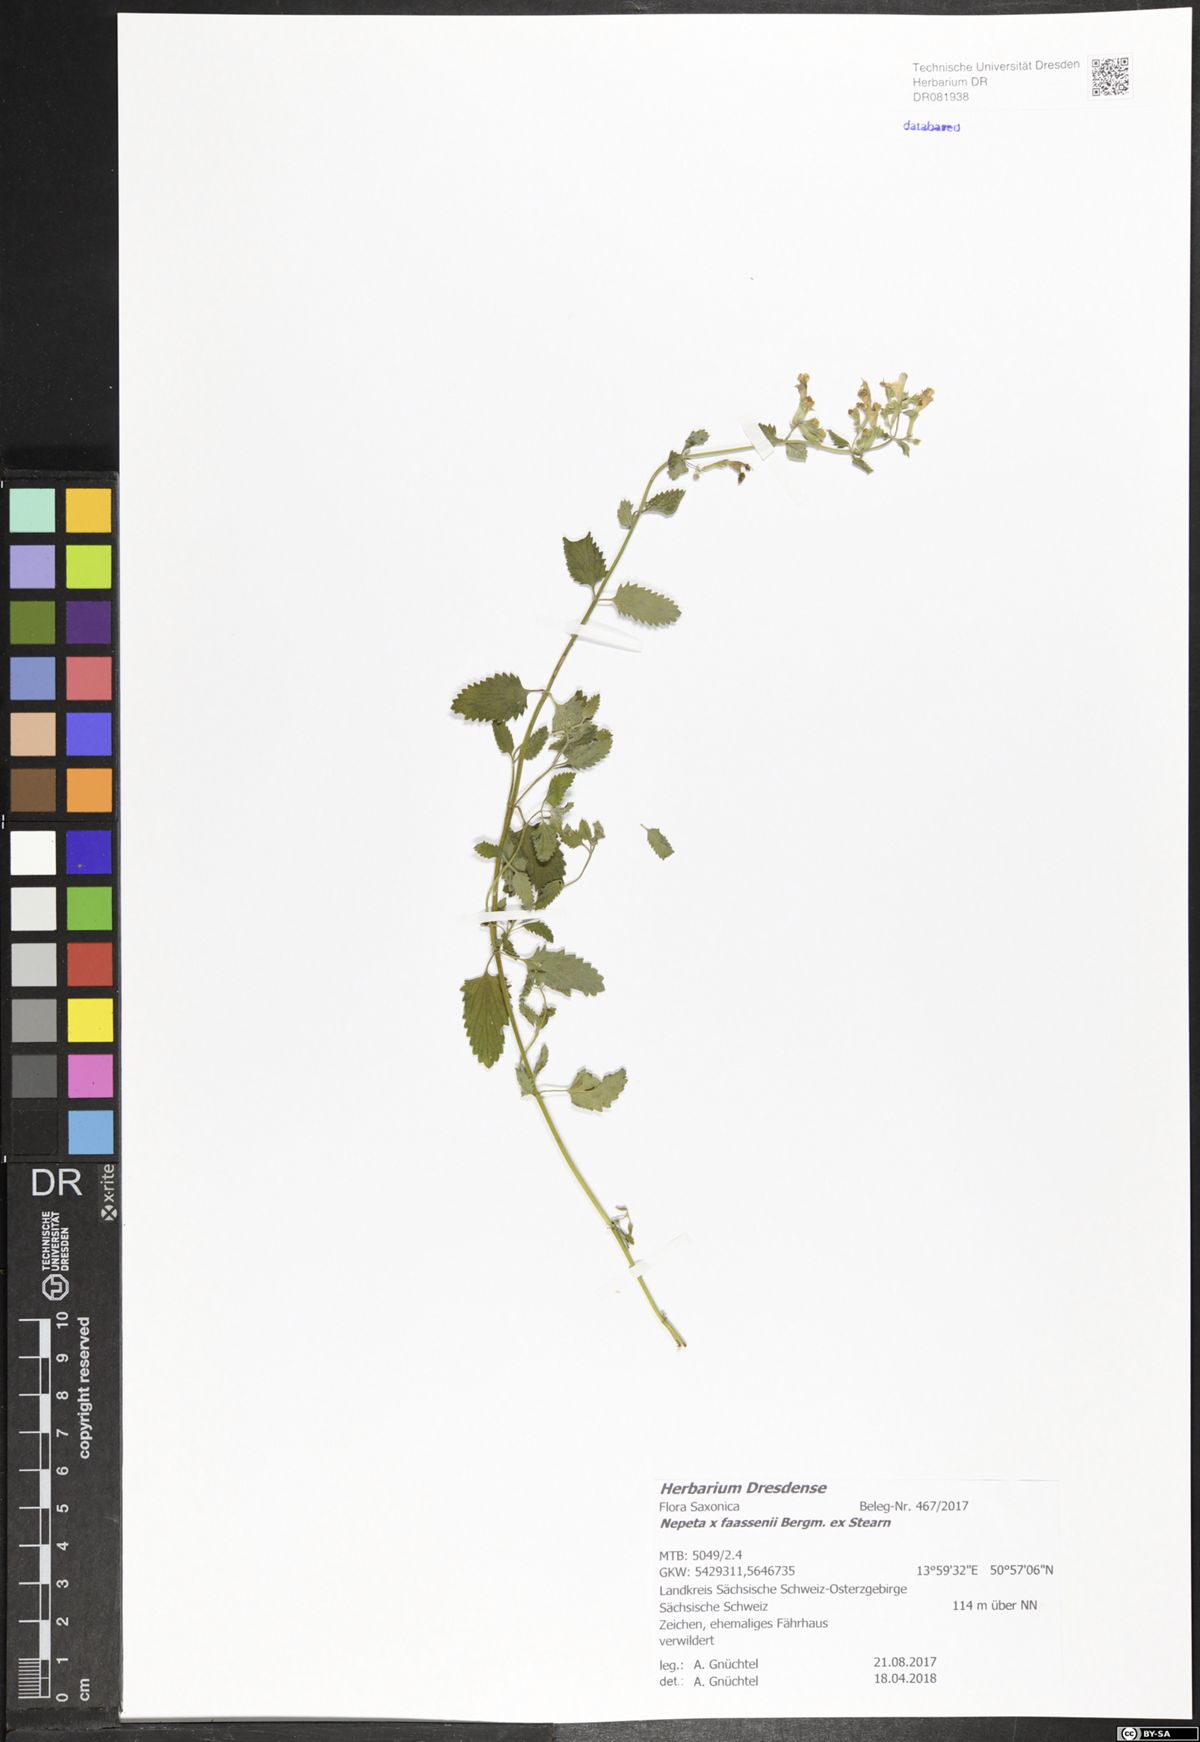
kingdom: Plantae
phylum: Tracheophyta
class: Magnoliopsida
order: Lamiales
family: Lamiaceae
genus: Nepeta
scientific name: Nepeta faassenii
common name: Catmint
